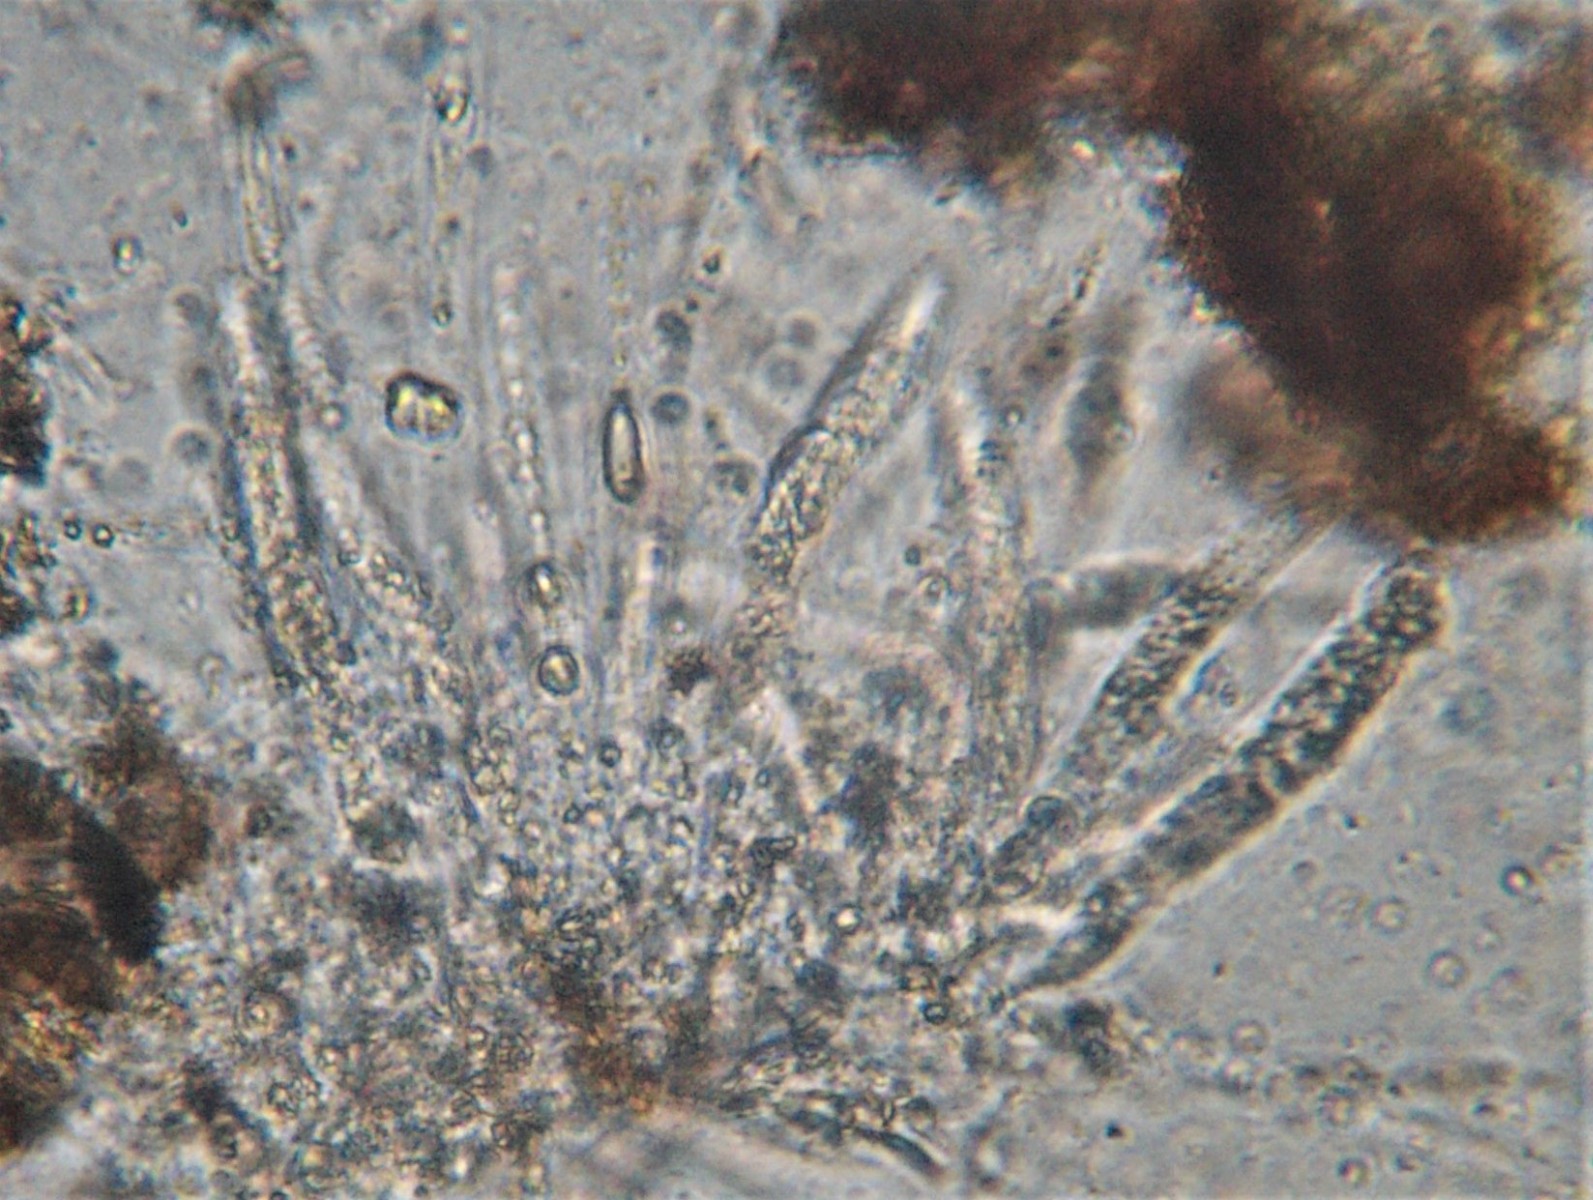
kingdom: Fungi
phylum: Ascomycota
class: Sordariomycetes
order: Diaporthales
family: Sydowiellaceae
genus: Sillia
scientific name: Sillia ferruginea
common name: hasselhals
